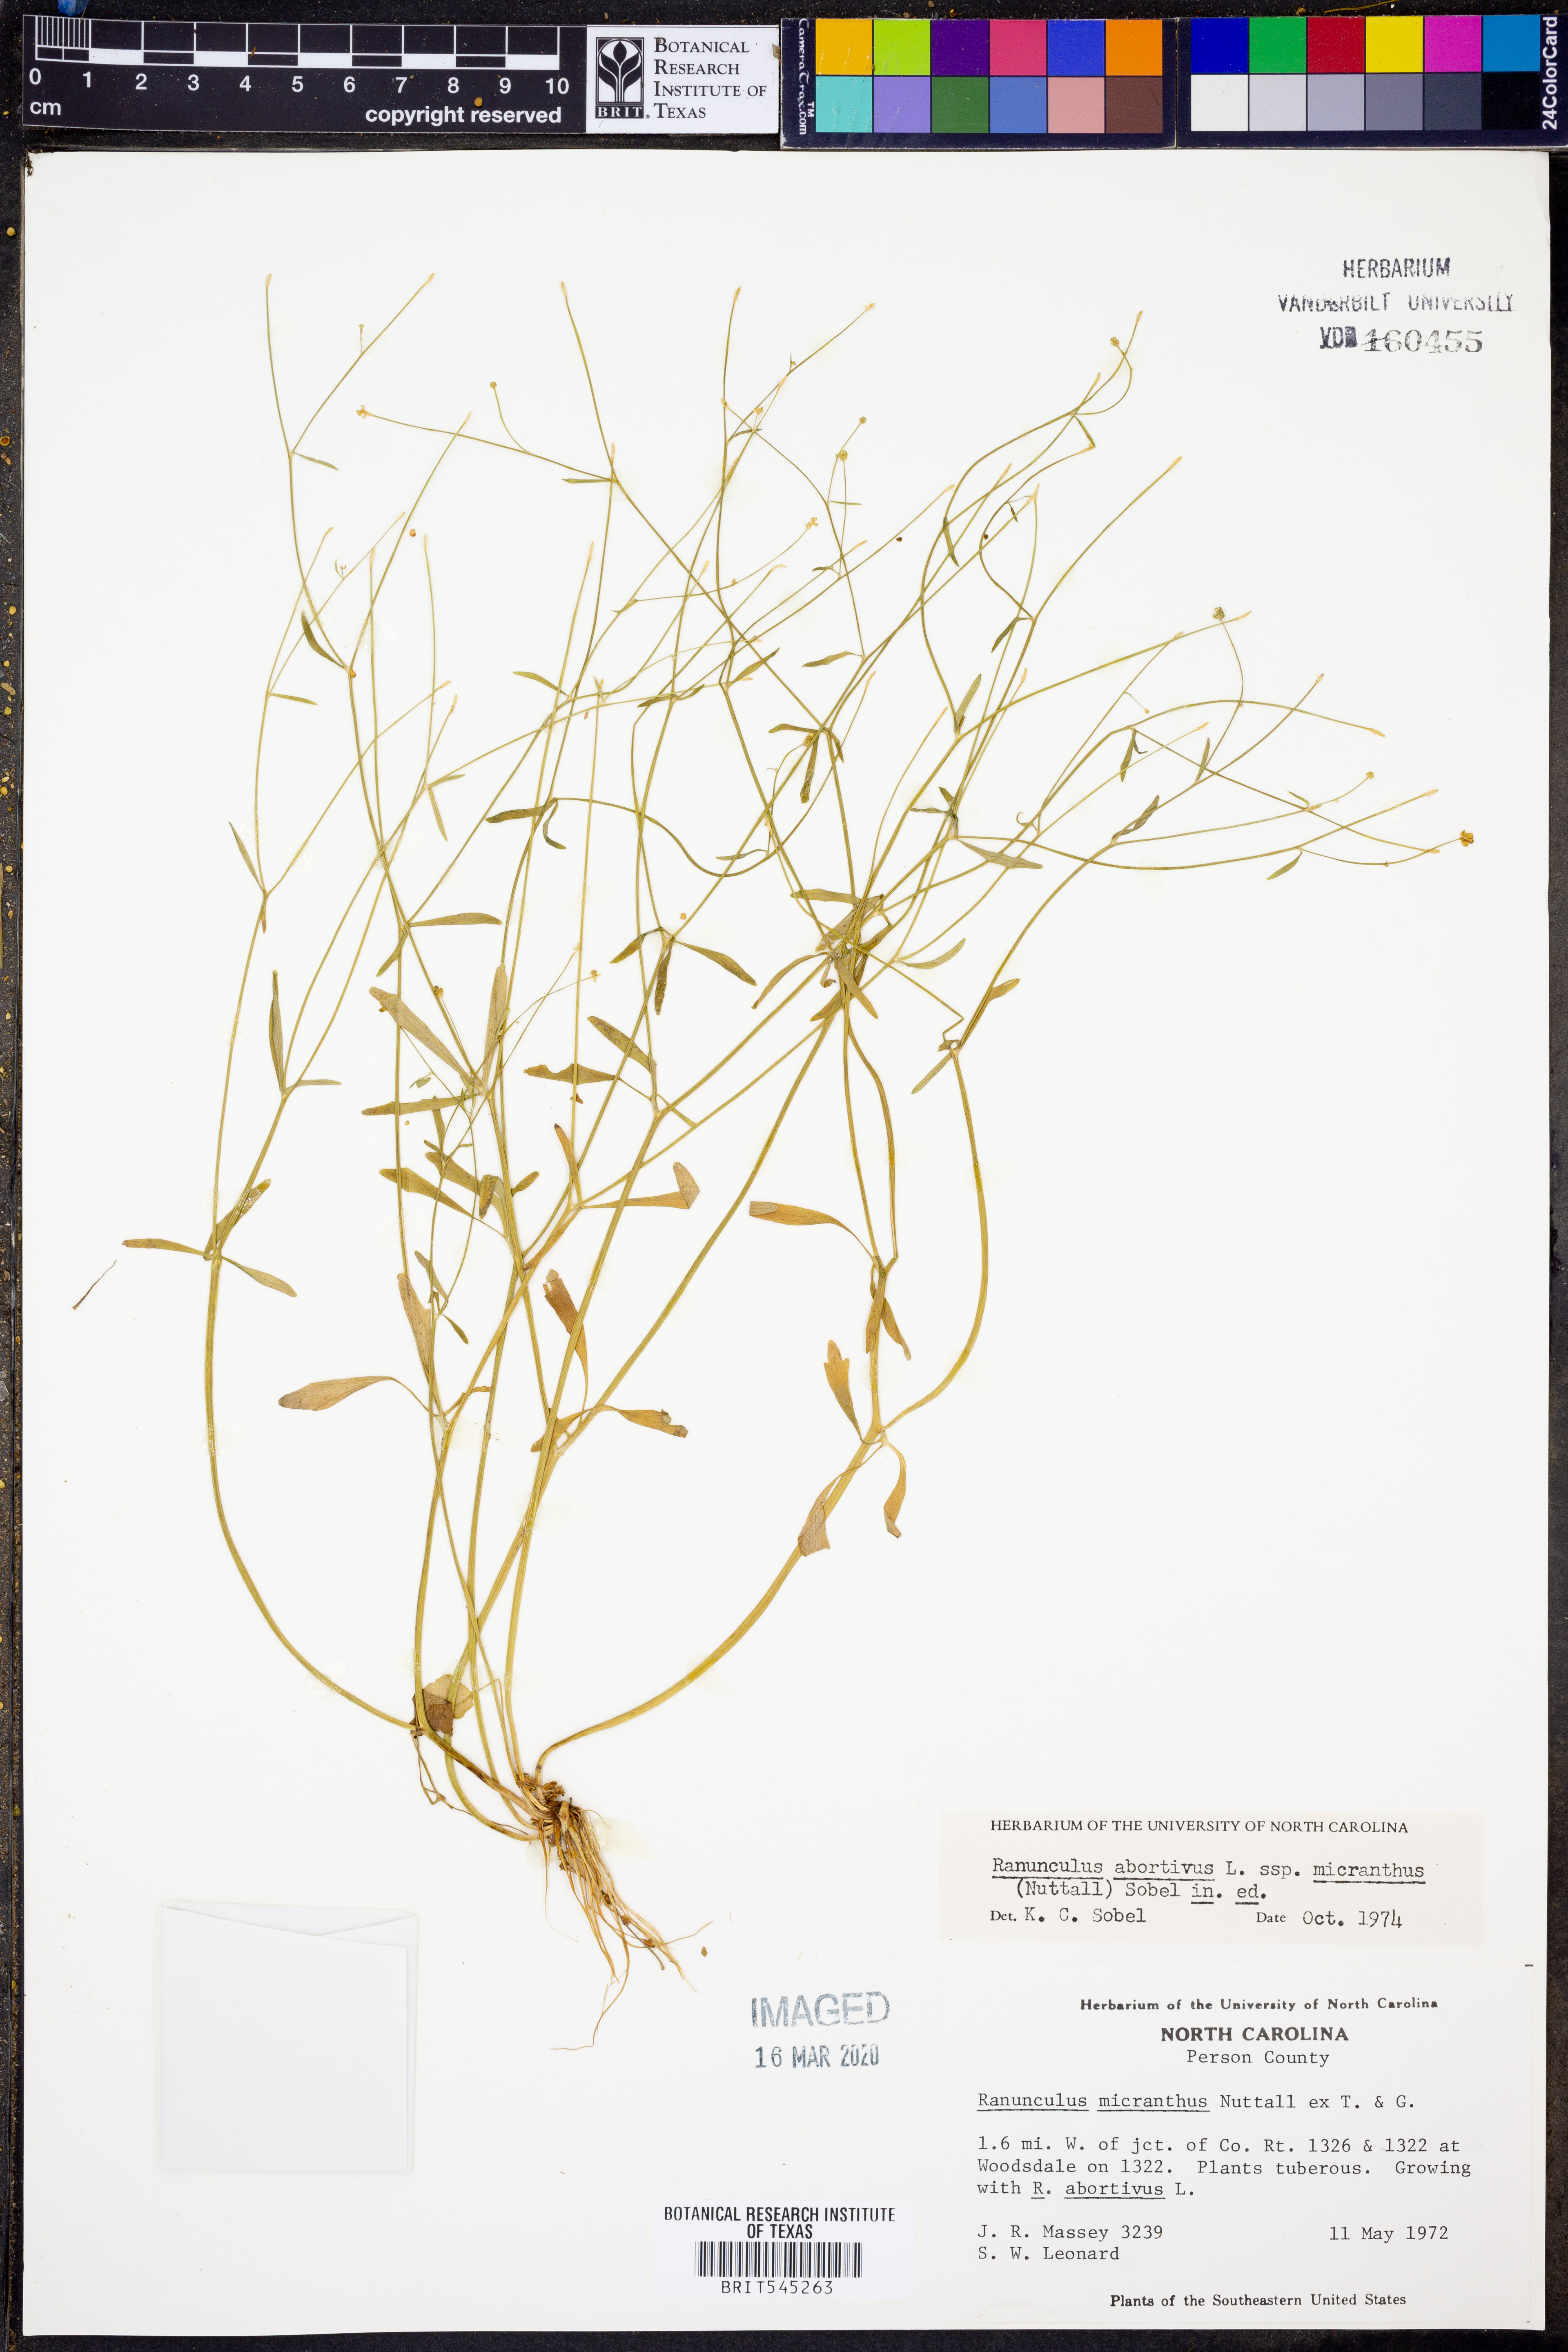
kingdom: Plantae
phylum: Tracheophyta
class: Magnoliopsida
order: Ranunculales
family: Ranunculaceae
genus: Ranunculus
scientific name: Ranunculus abortivus
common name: Early wood buttercup
